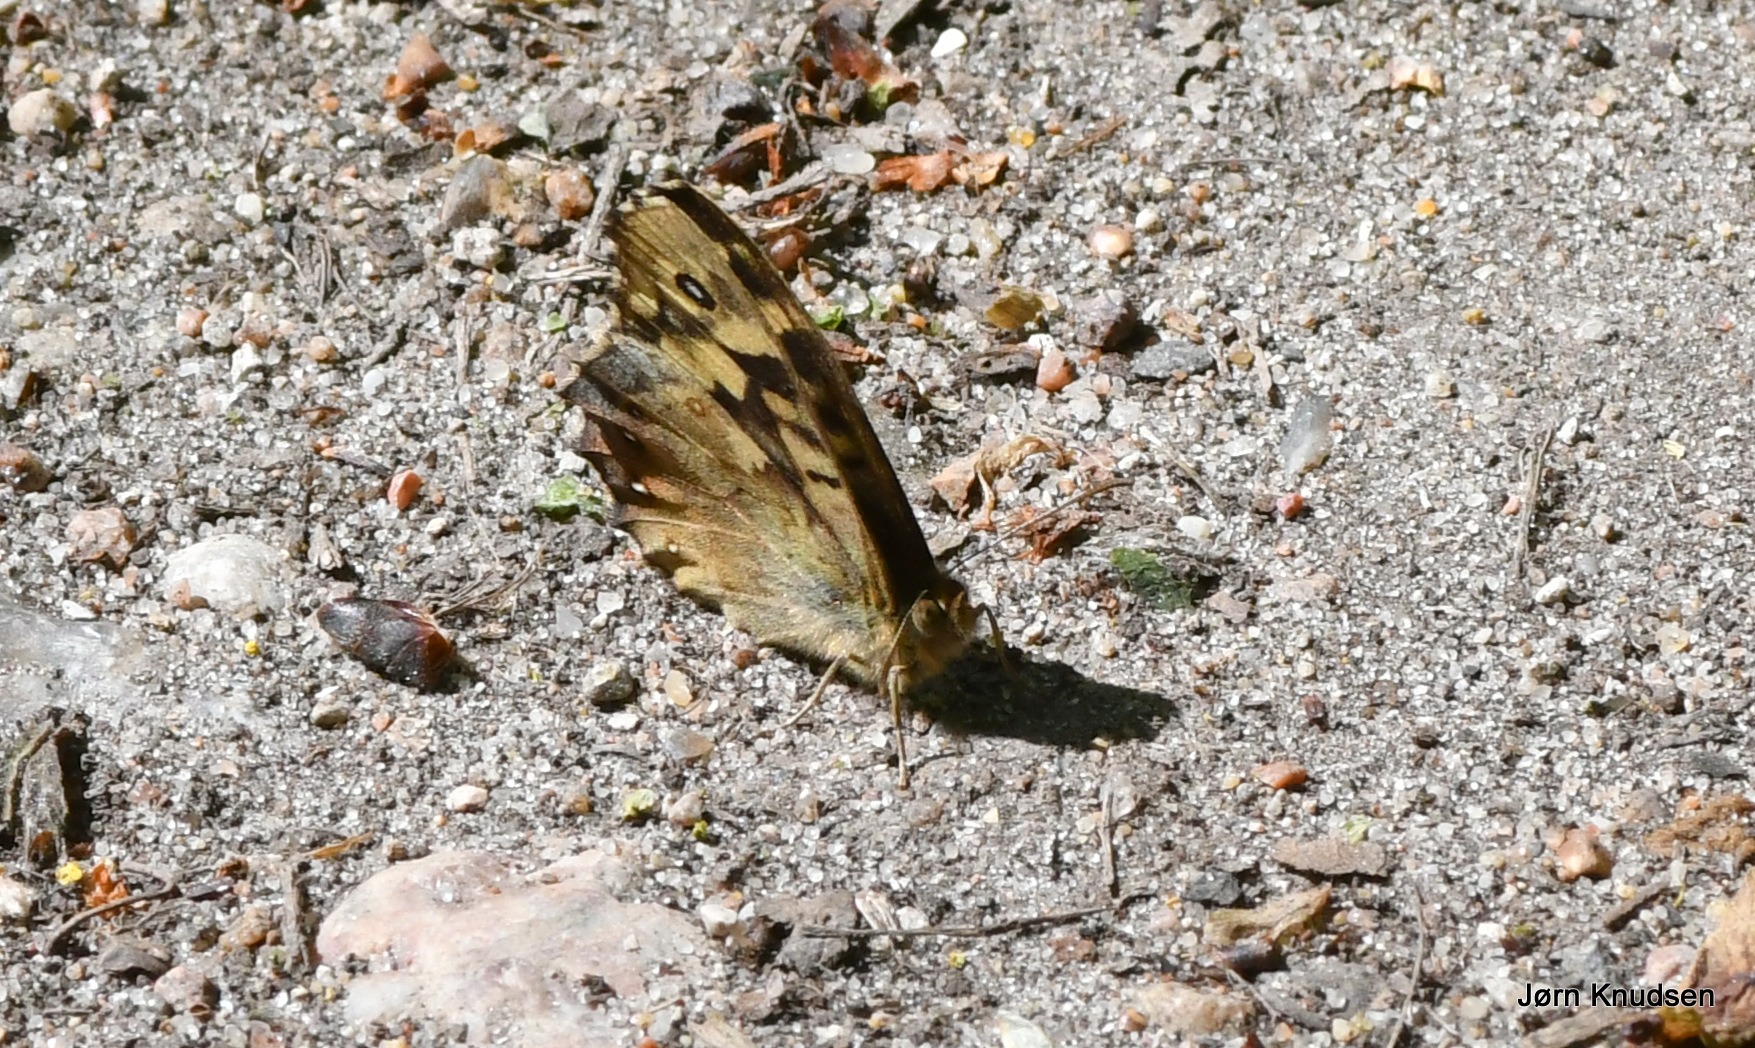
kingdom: Animalia
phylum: Arthropoda
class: Insecta
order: Lepidoptera
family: Nymphalidae
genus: Pararge
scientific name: Pararge aegeria
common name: Skovrandøje
